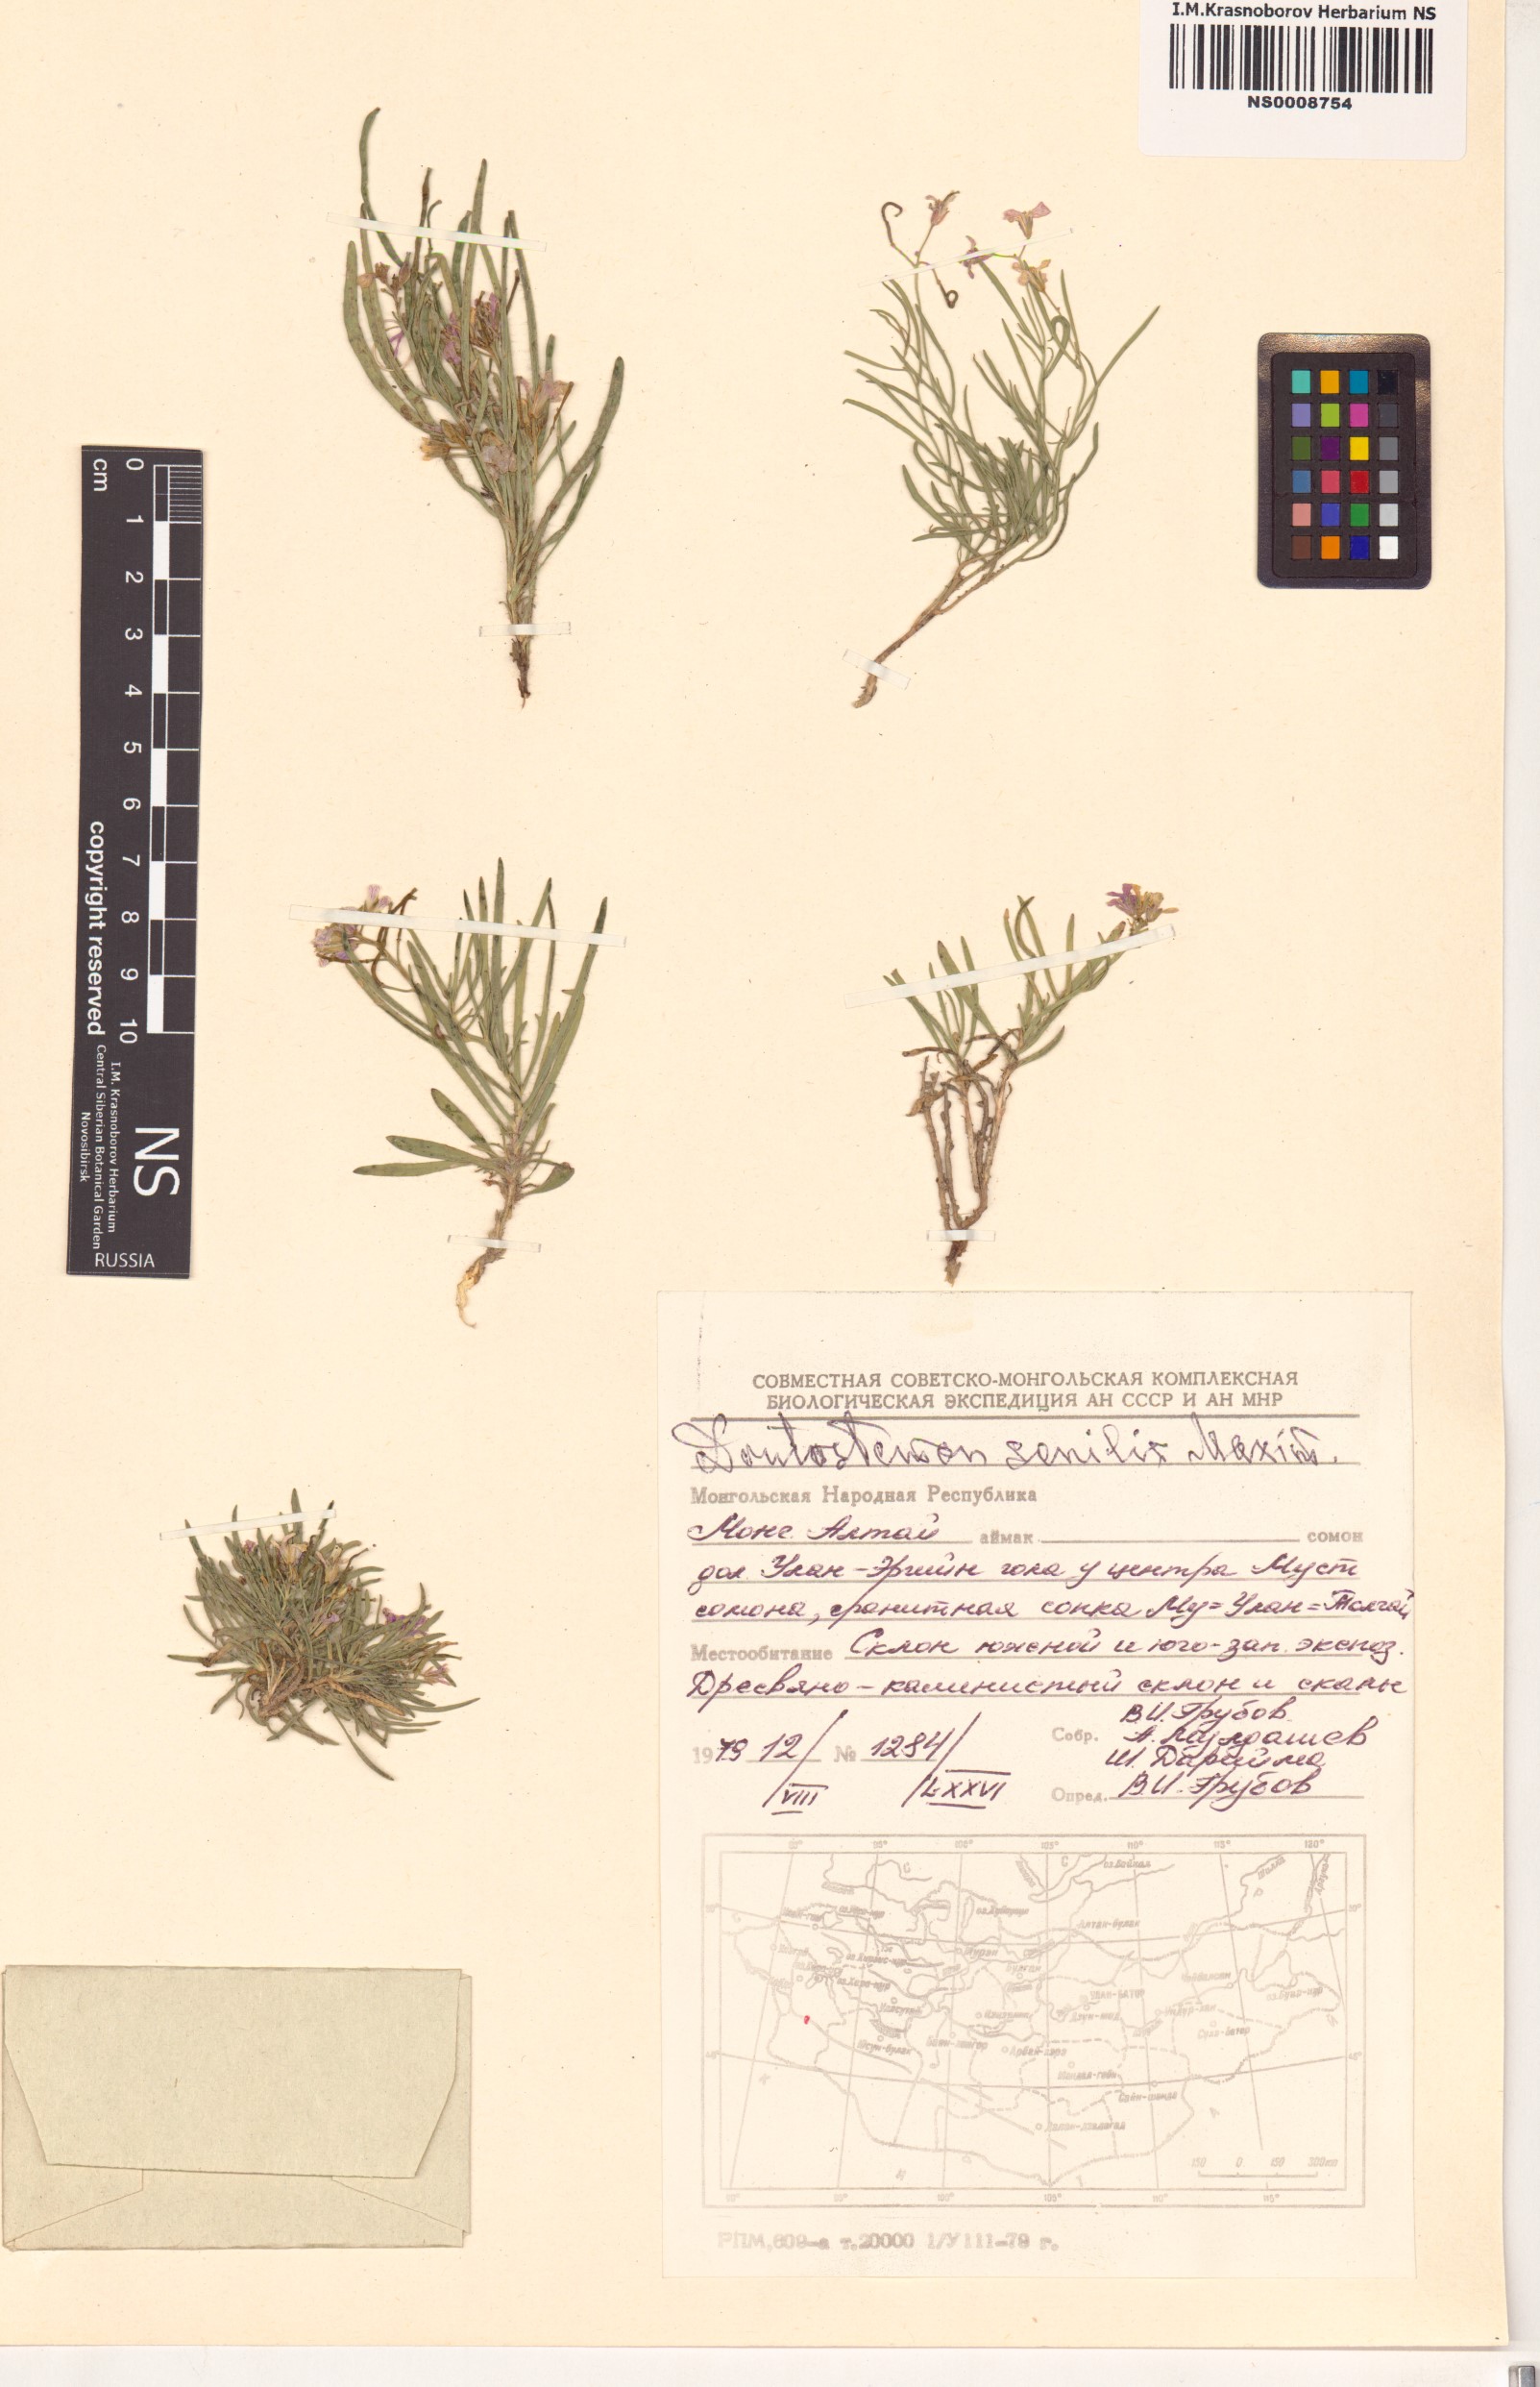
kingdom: Plantae
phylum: Tracheophyta
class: Magnoliopsida
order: Brassicales
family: Brassicaceae
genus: Dontostemon
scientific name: Dontostemon senilis
